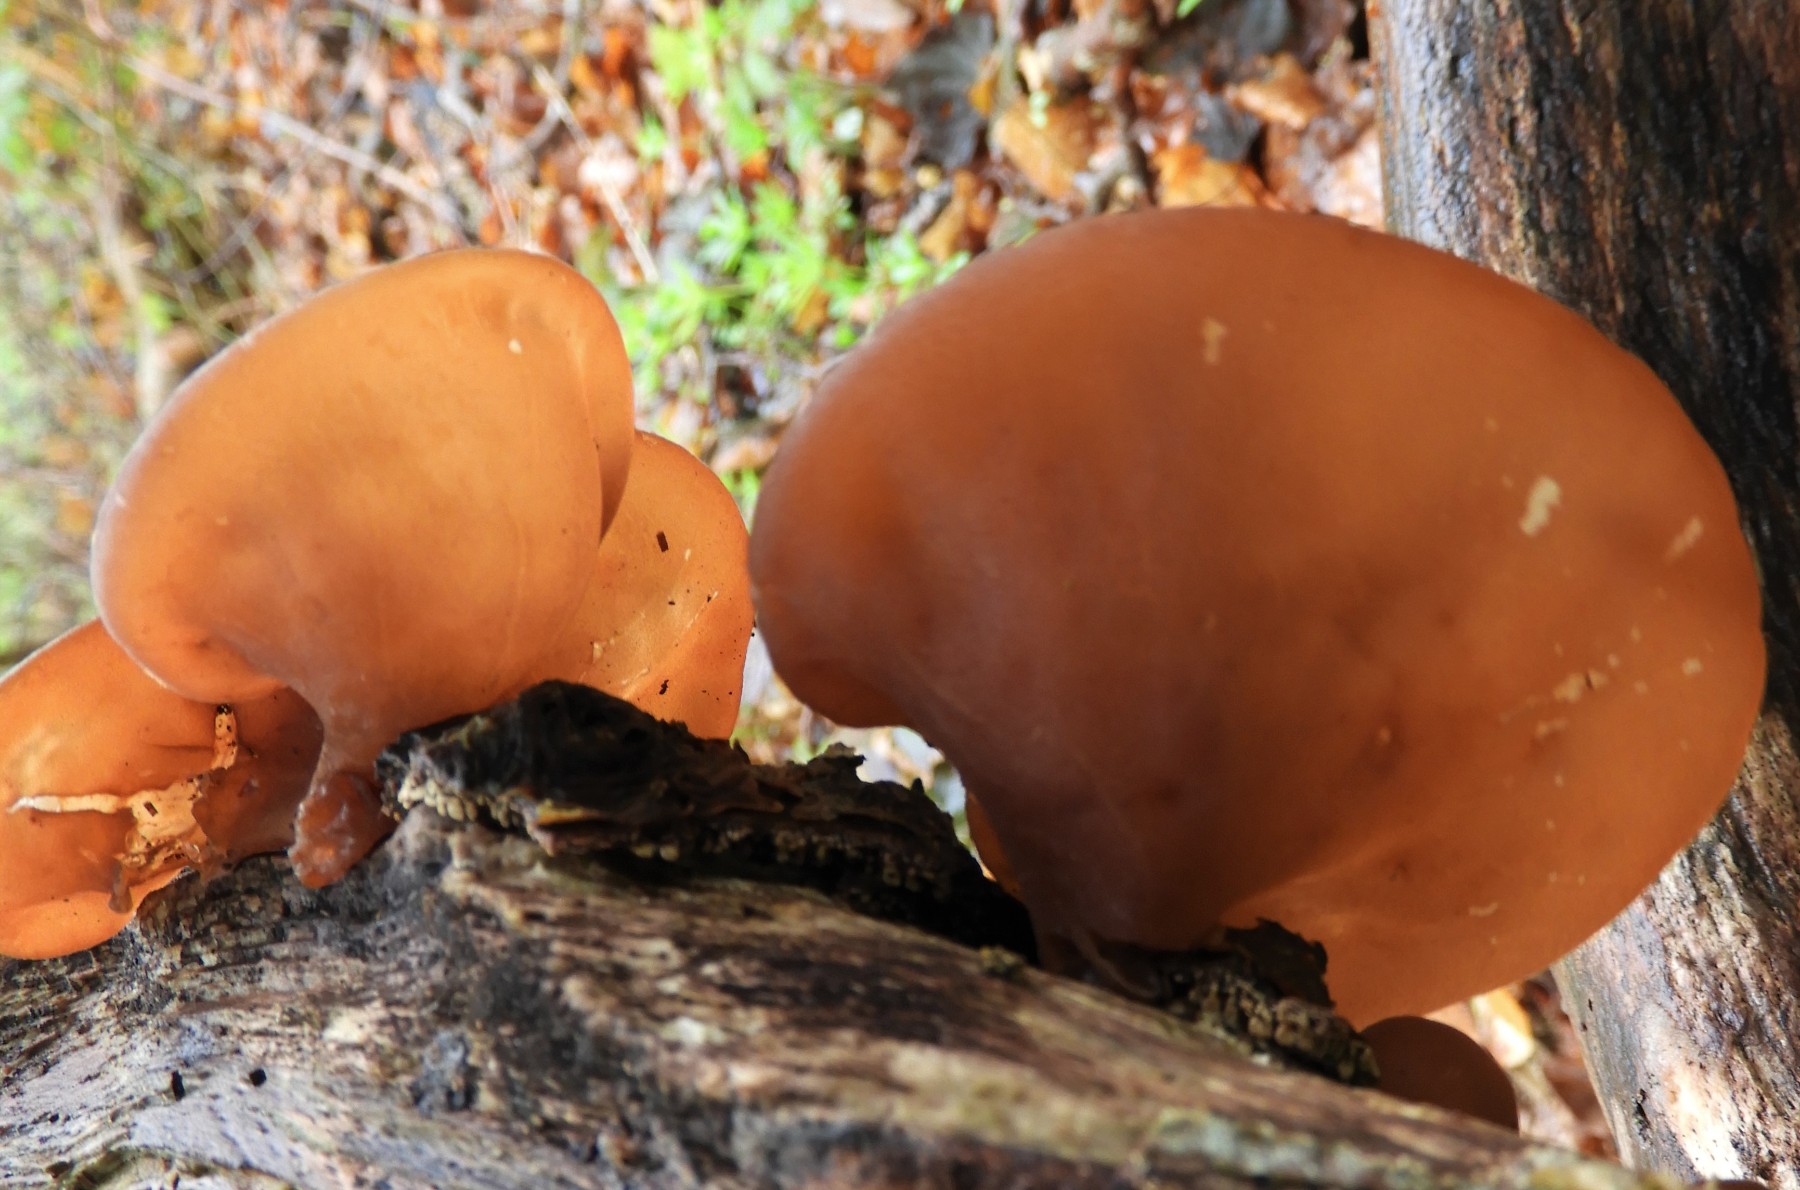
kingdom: Fungi
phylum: Basidiomycota
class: Agaricomycetes
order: Auriculariales
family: Auriculariaceae
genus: Auricularia
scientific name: Auricularia auricula-judae
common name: almindelig judasøre
